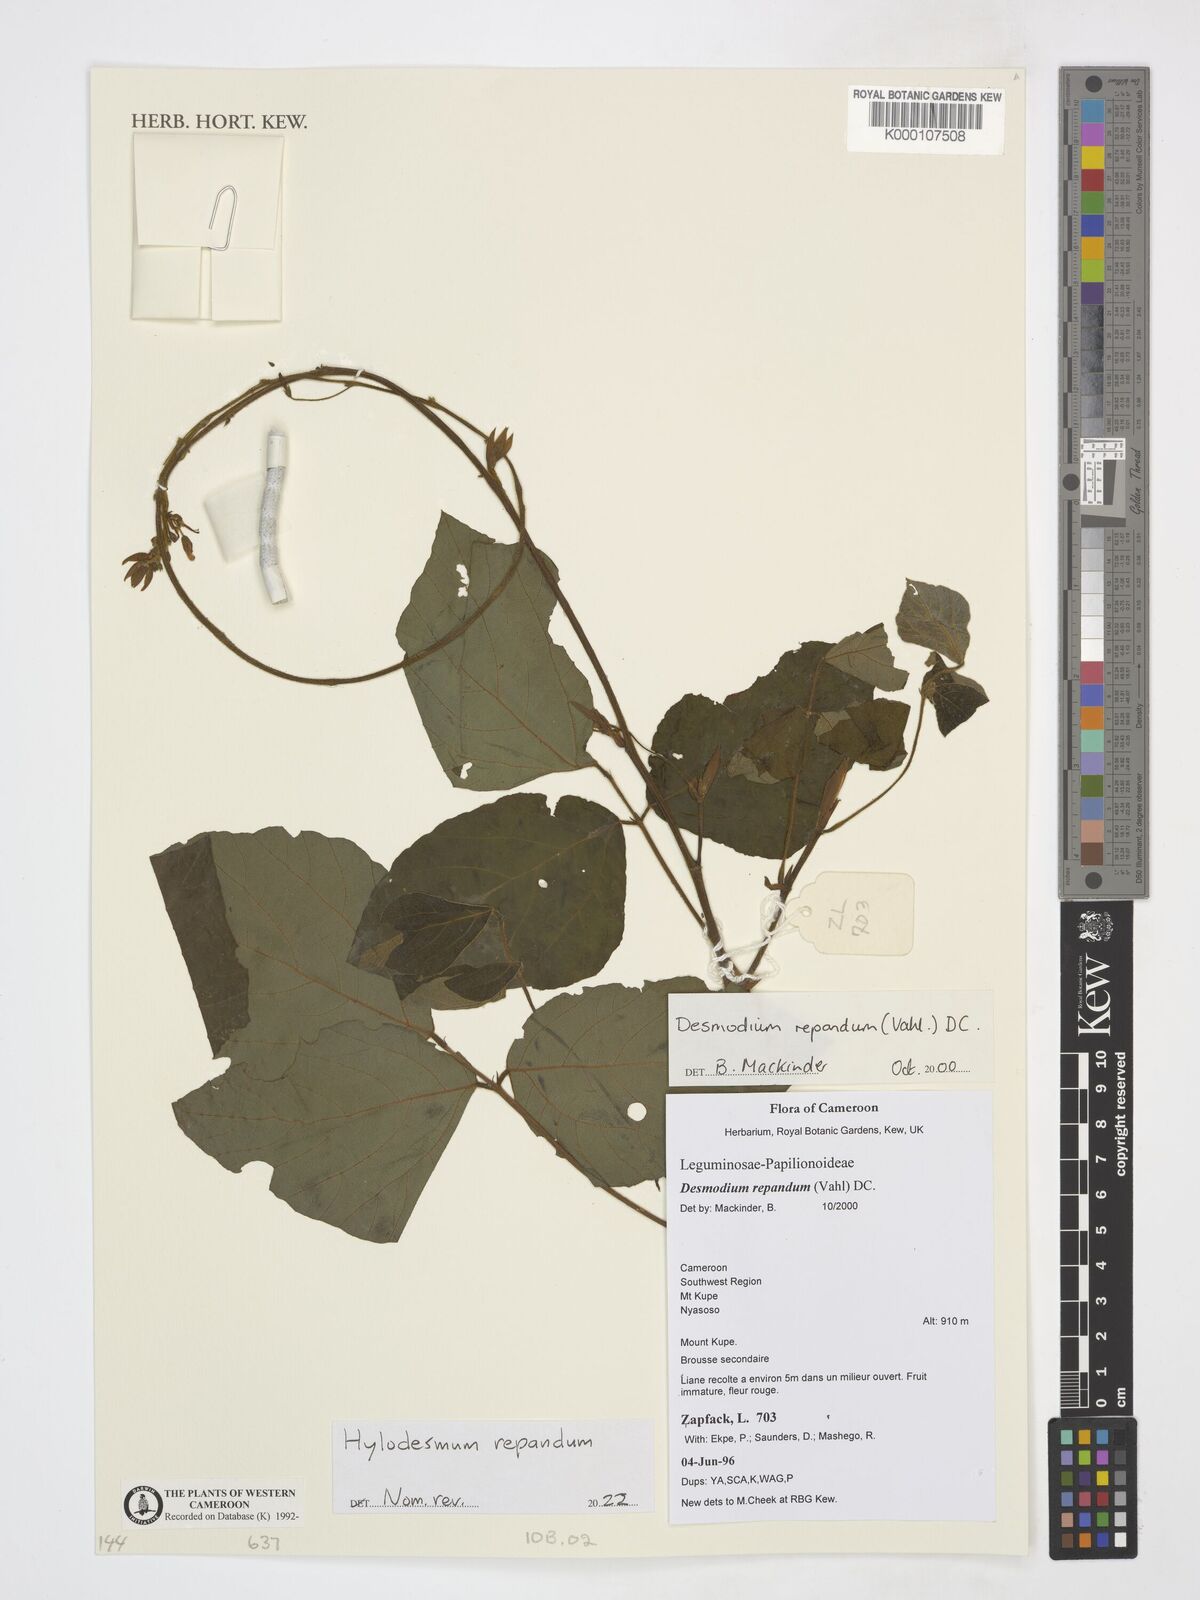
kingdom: Plantae
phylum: Tracheophyta
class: Magnoliopsida
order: Fabales
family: Fabaceae
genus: Desmodium
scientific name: Desmodium
